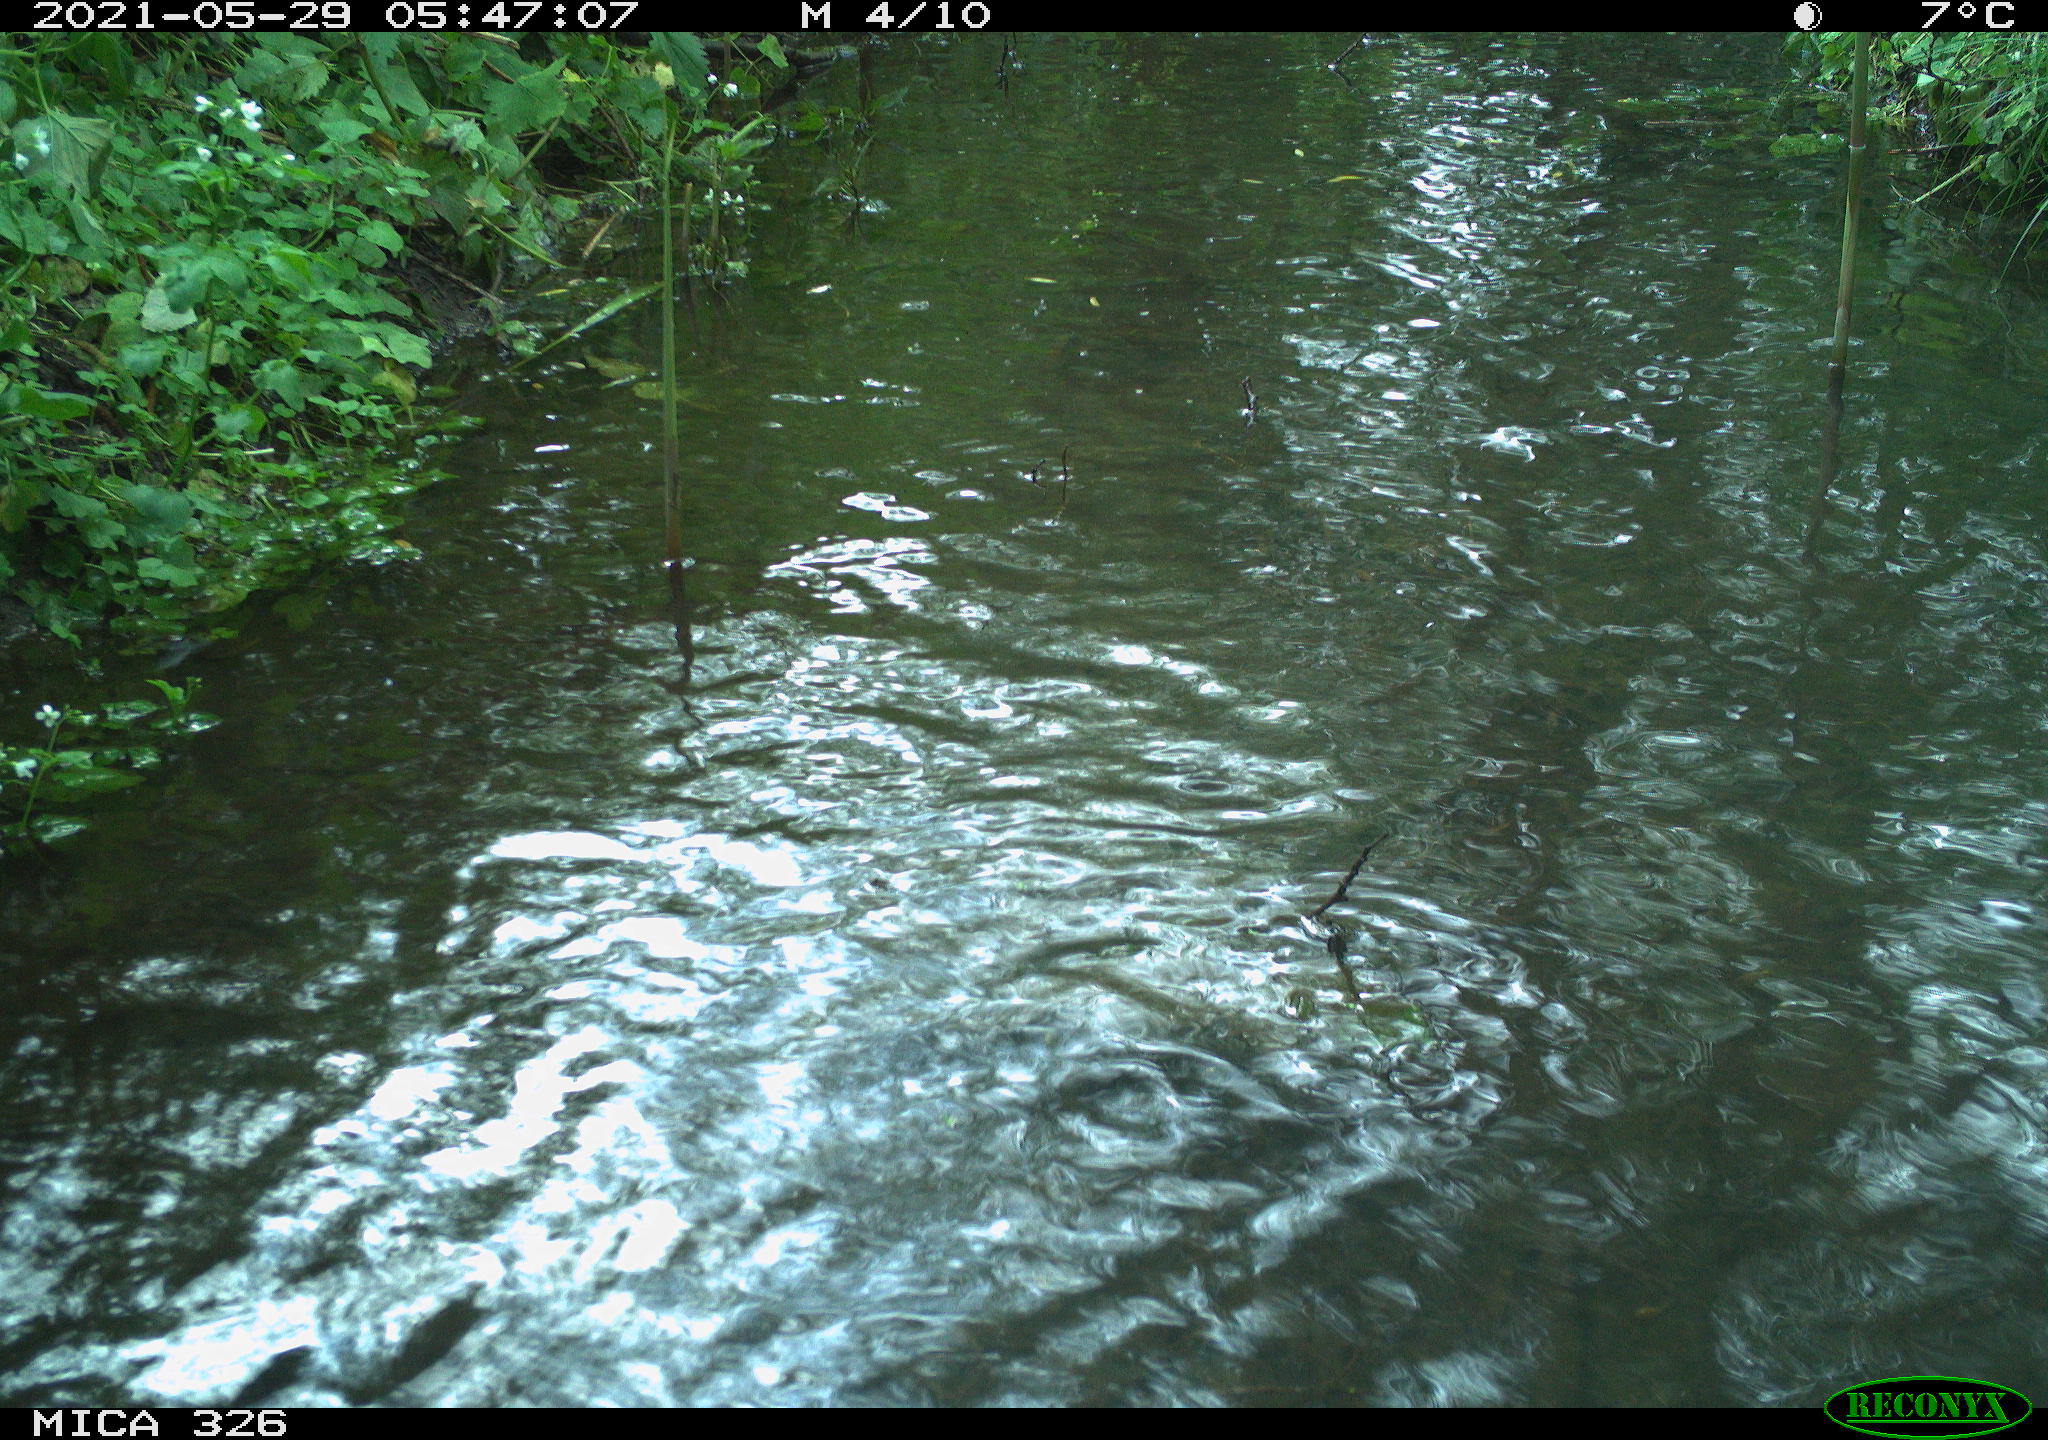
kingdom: Animalia
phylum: Chordata
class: Aves
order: Anseriformes
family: Anatidae
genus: Anas
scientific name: Anas platyrhynchos
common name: Mallard
